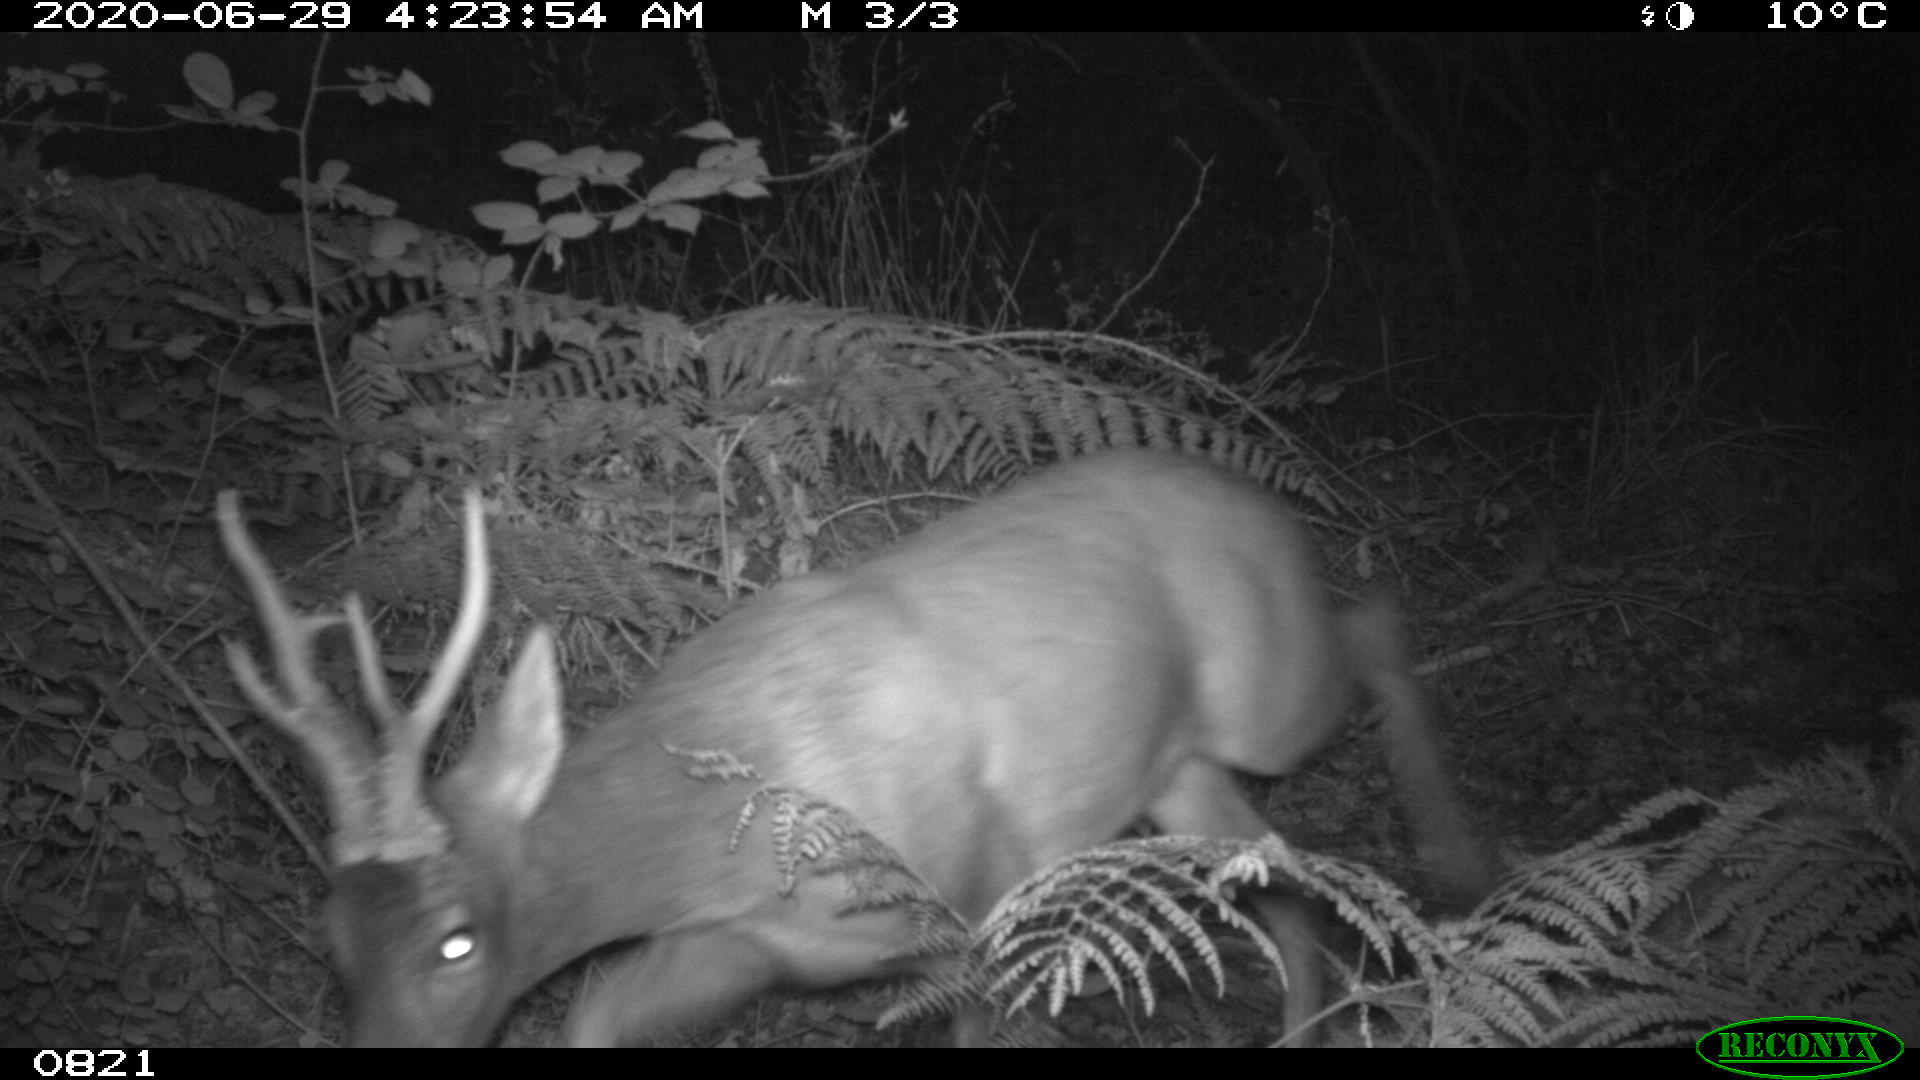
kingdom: Animalia
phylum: Chordata
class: Mammalia
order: Artiodactyla
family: Cervidae
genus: Capreolus
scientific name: Capreolus capreolus
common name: Western roe deer
